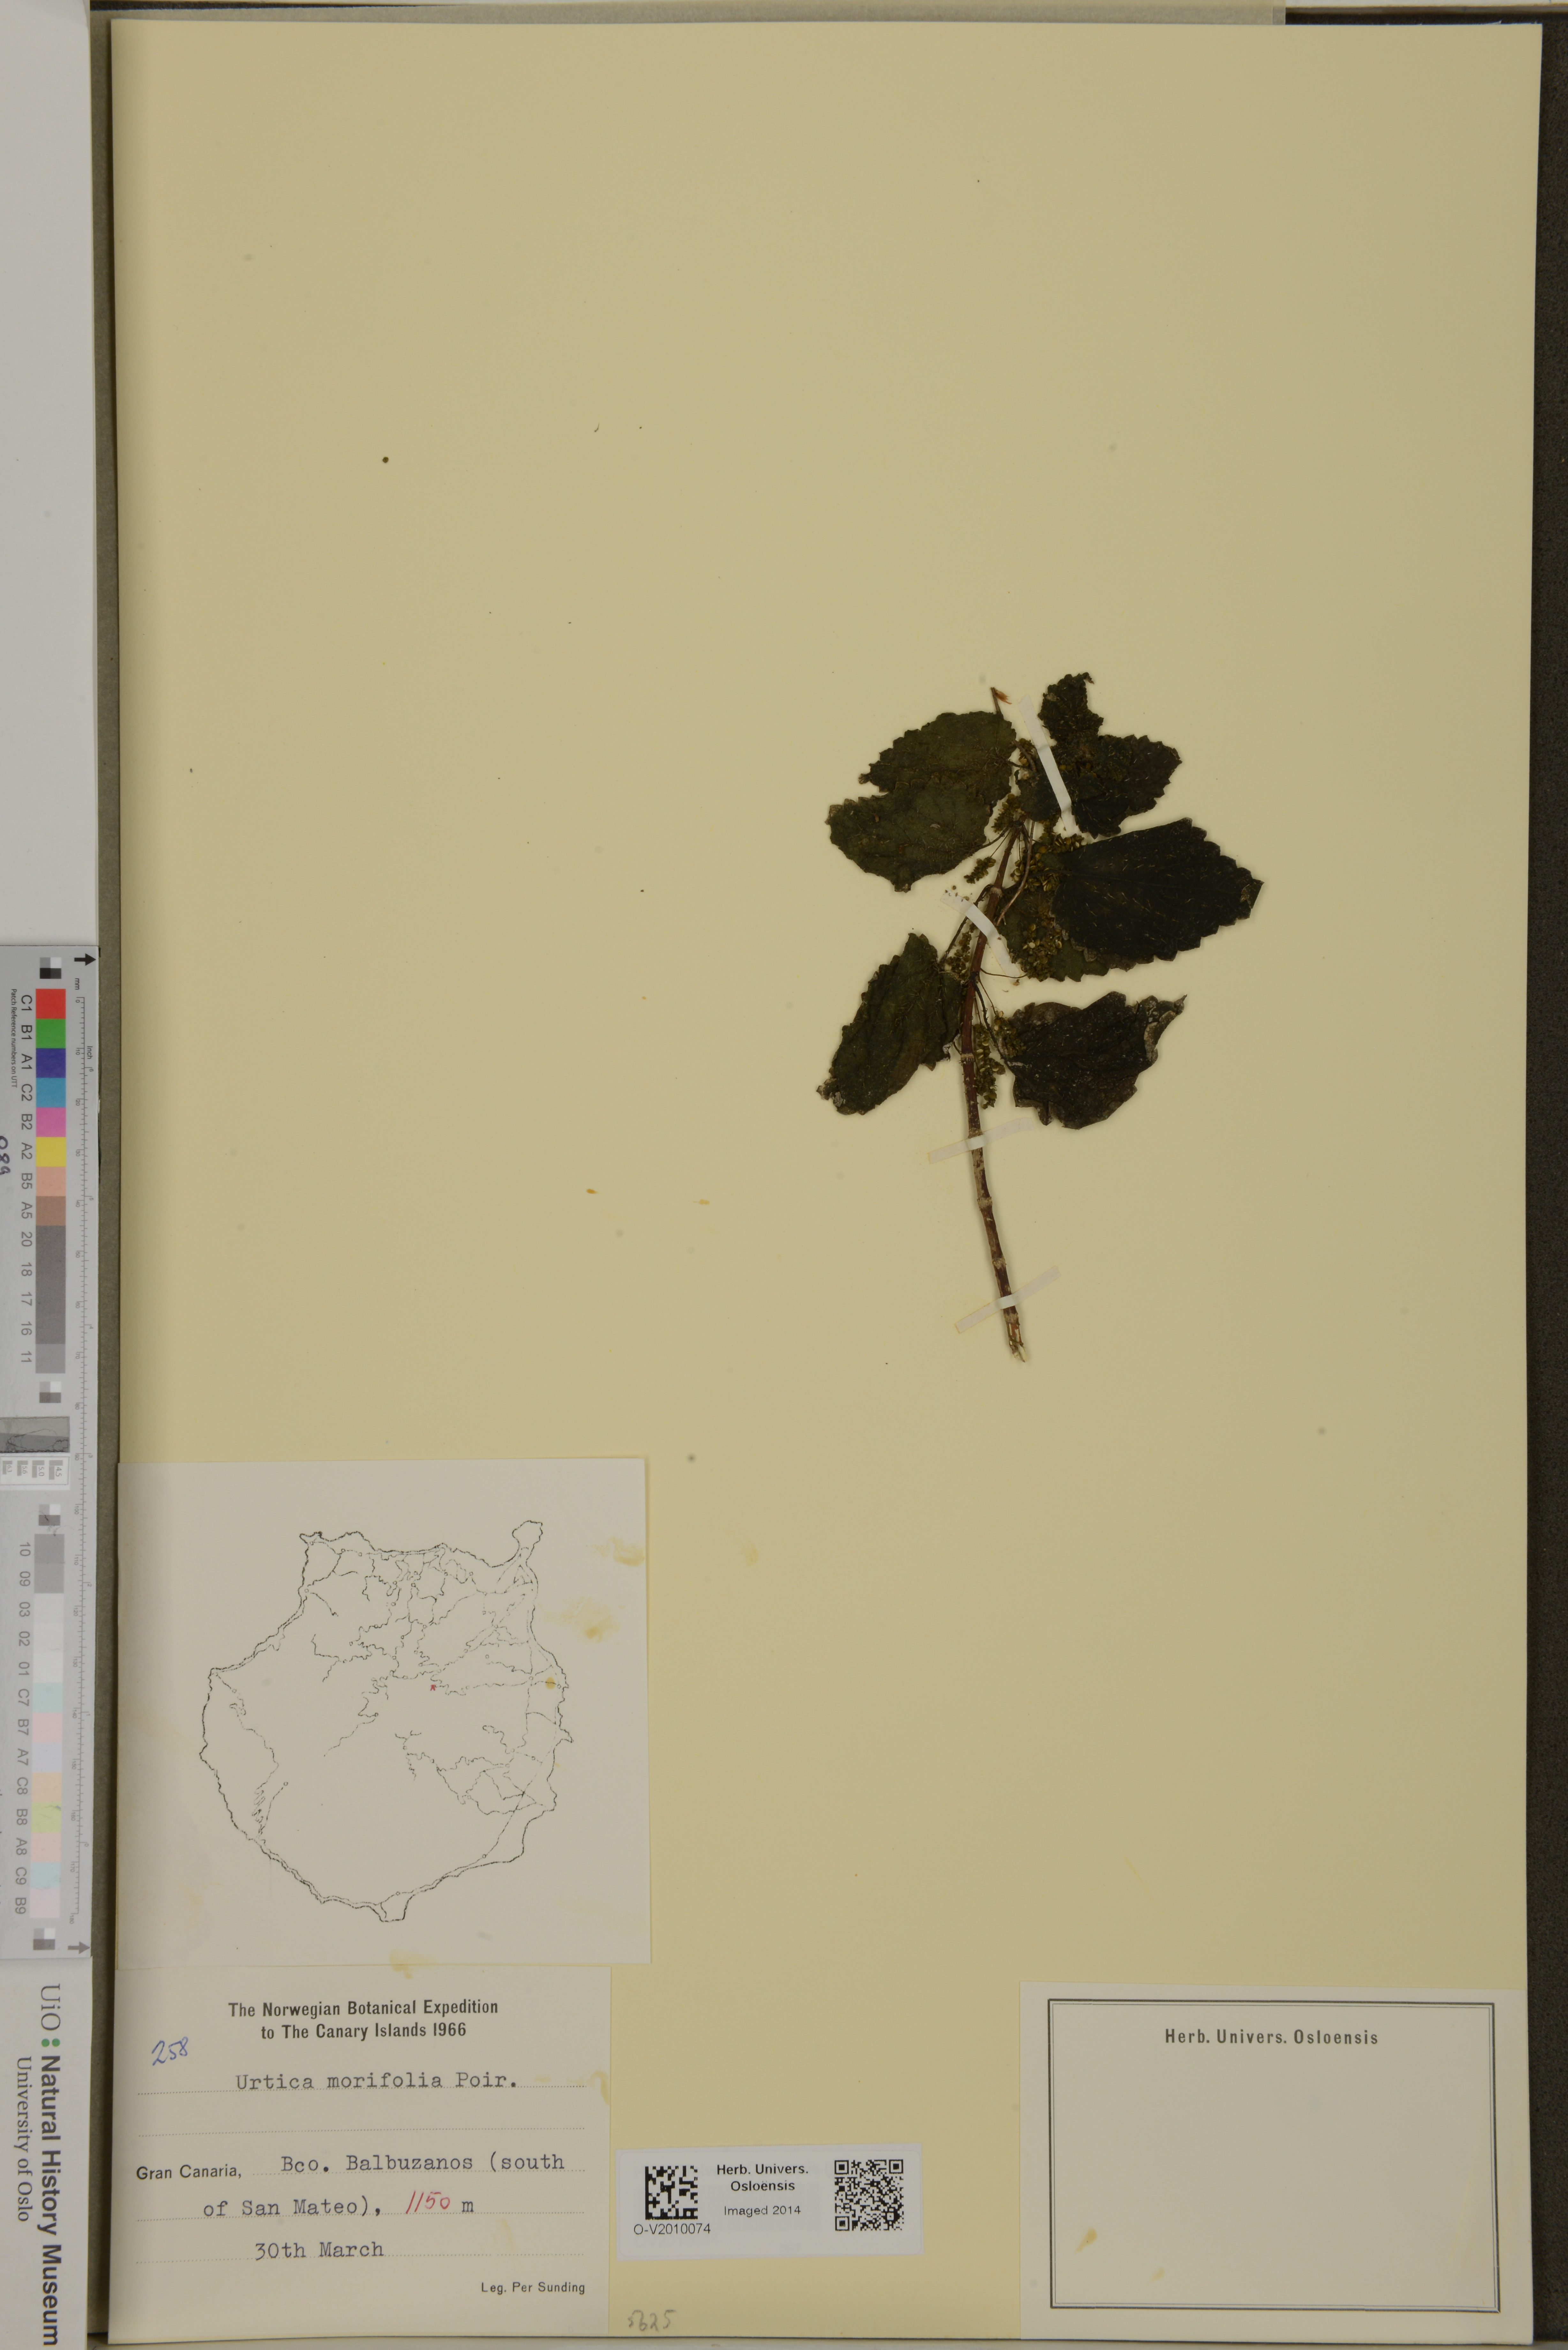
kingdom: Plantae
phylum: Tracheophyta
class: Magnoliopsida
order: Rosales
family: Urticaceae
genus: Urtica
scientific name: Urtica morifolia
